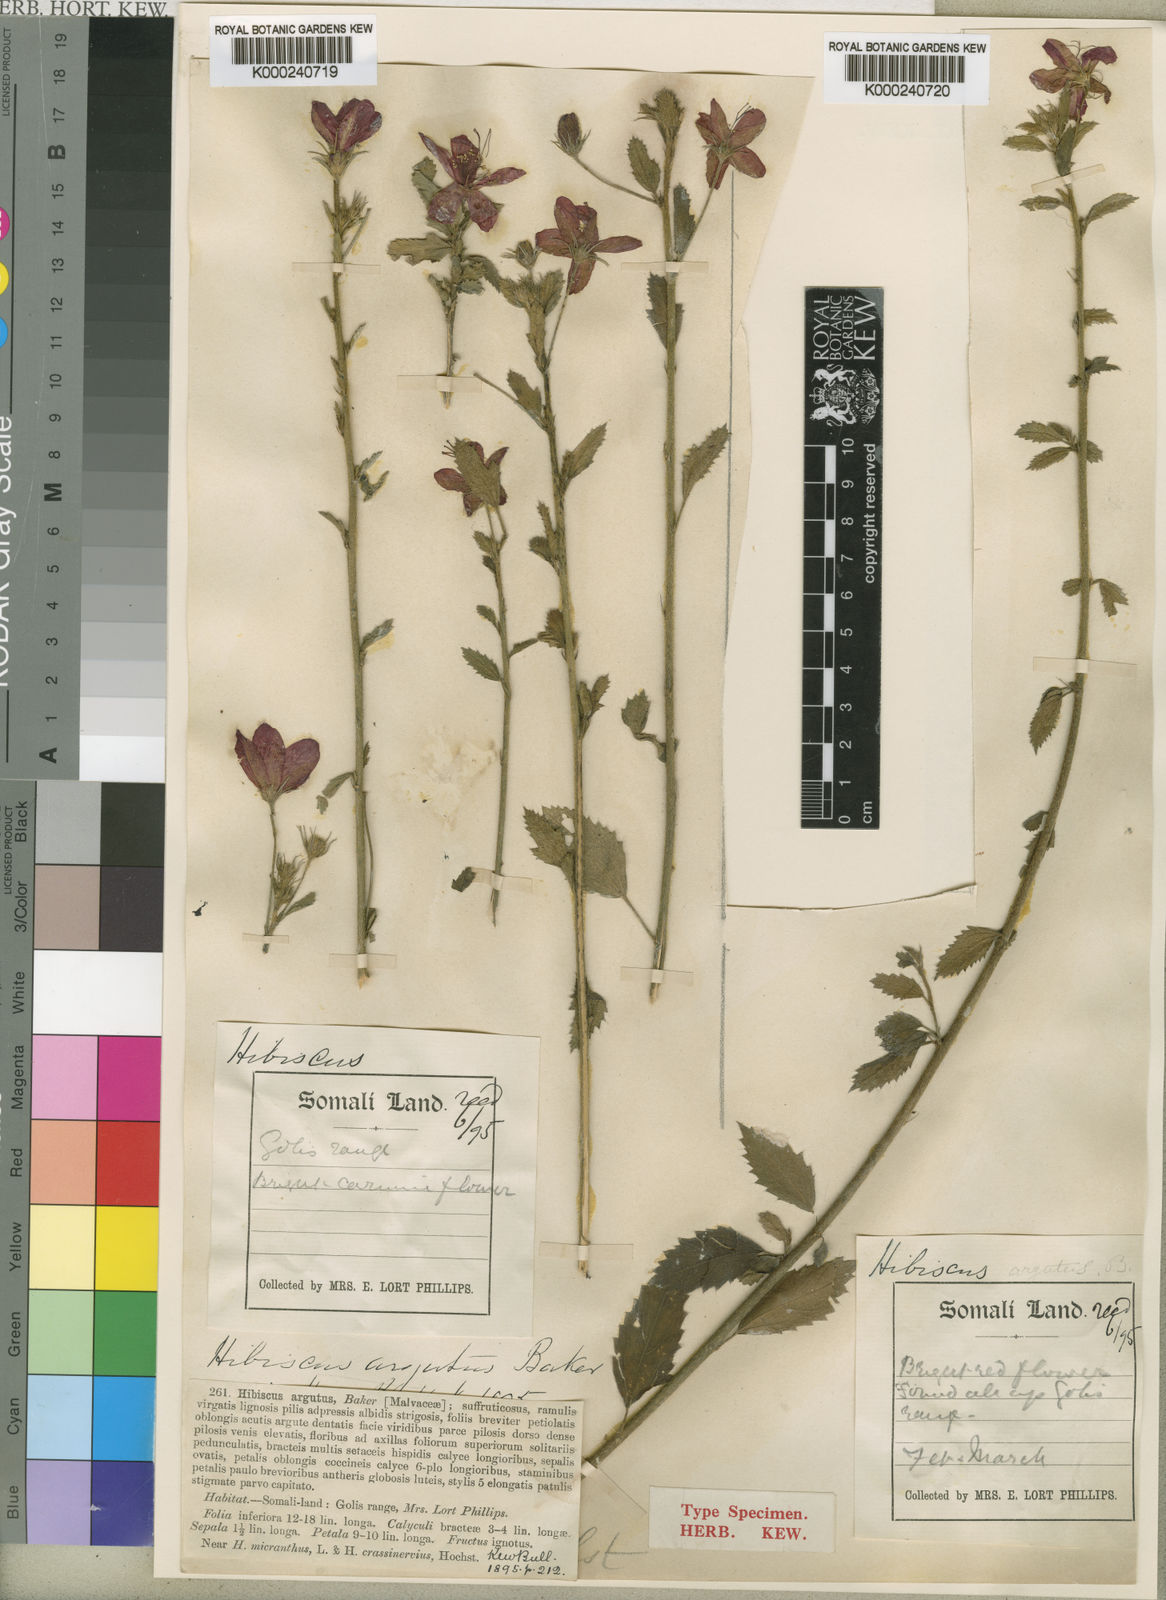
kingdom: Plantae
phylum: Tracheophyta
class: Magnoliopsida
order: Malvales
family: Malvaceae
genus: Hibiscus
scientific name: Hibiscus argutus
